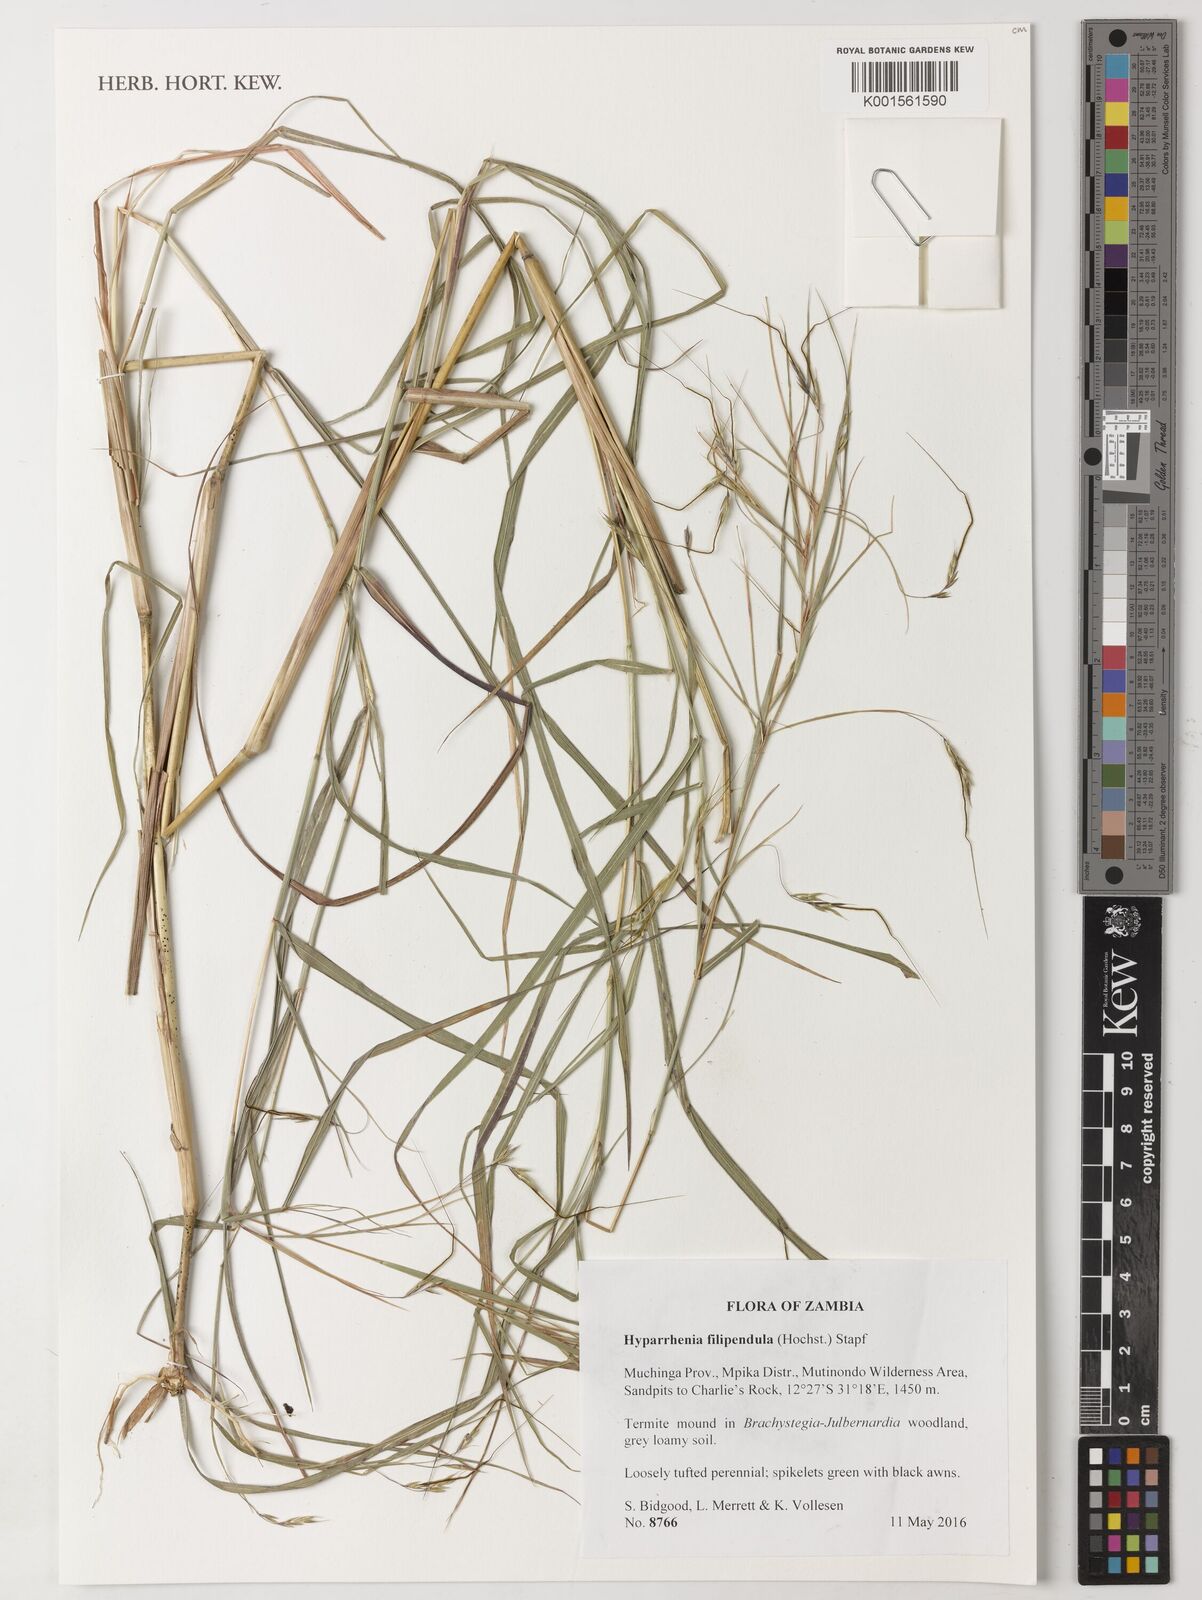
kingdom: Plantae
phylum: Tracheophyta
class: Liliopsida
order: Poales
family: Poaceae
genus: Hyparrhenia
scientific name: Hyparrhenia filipendula
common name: Tambookie grass
